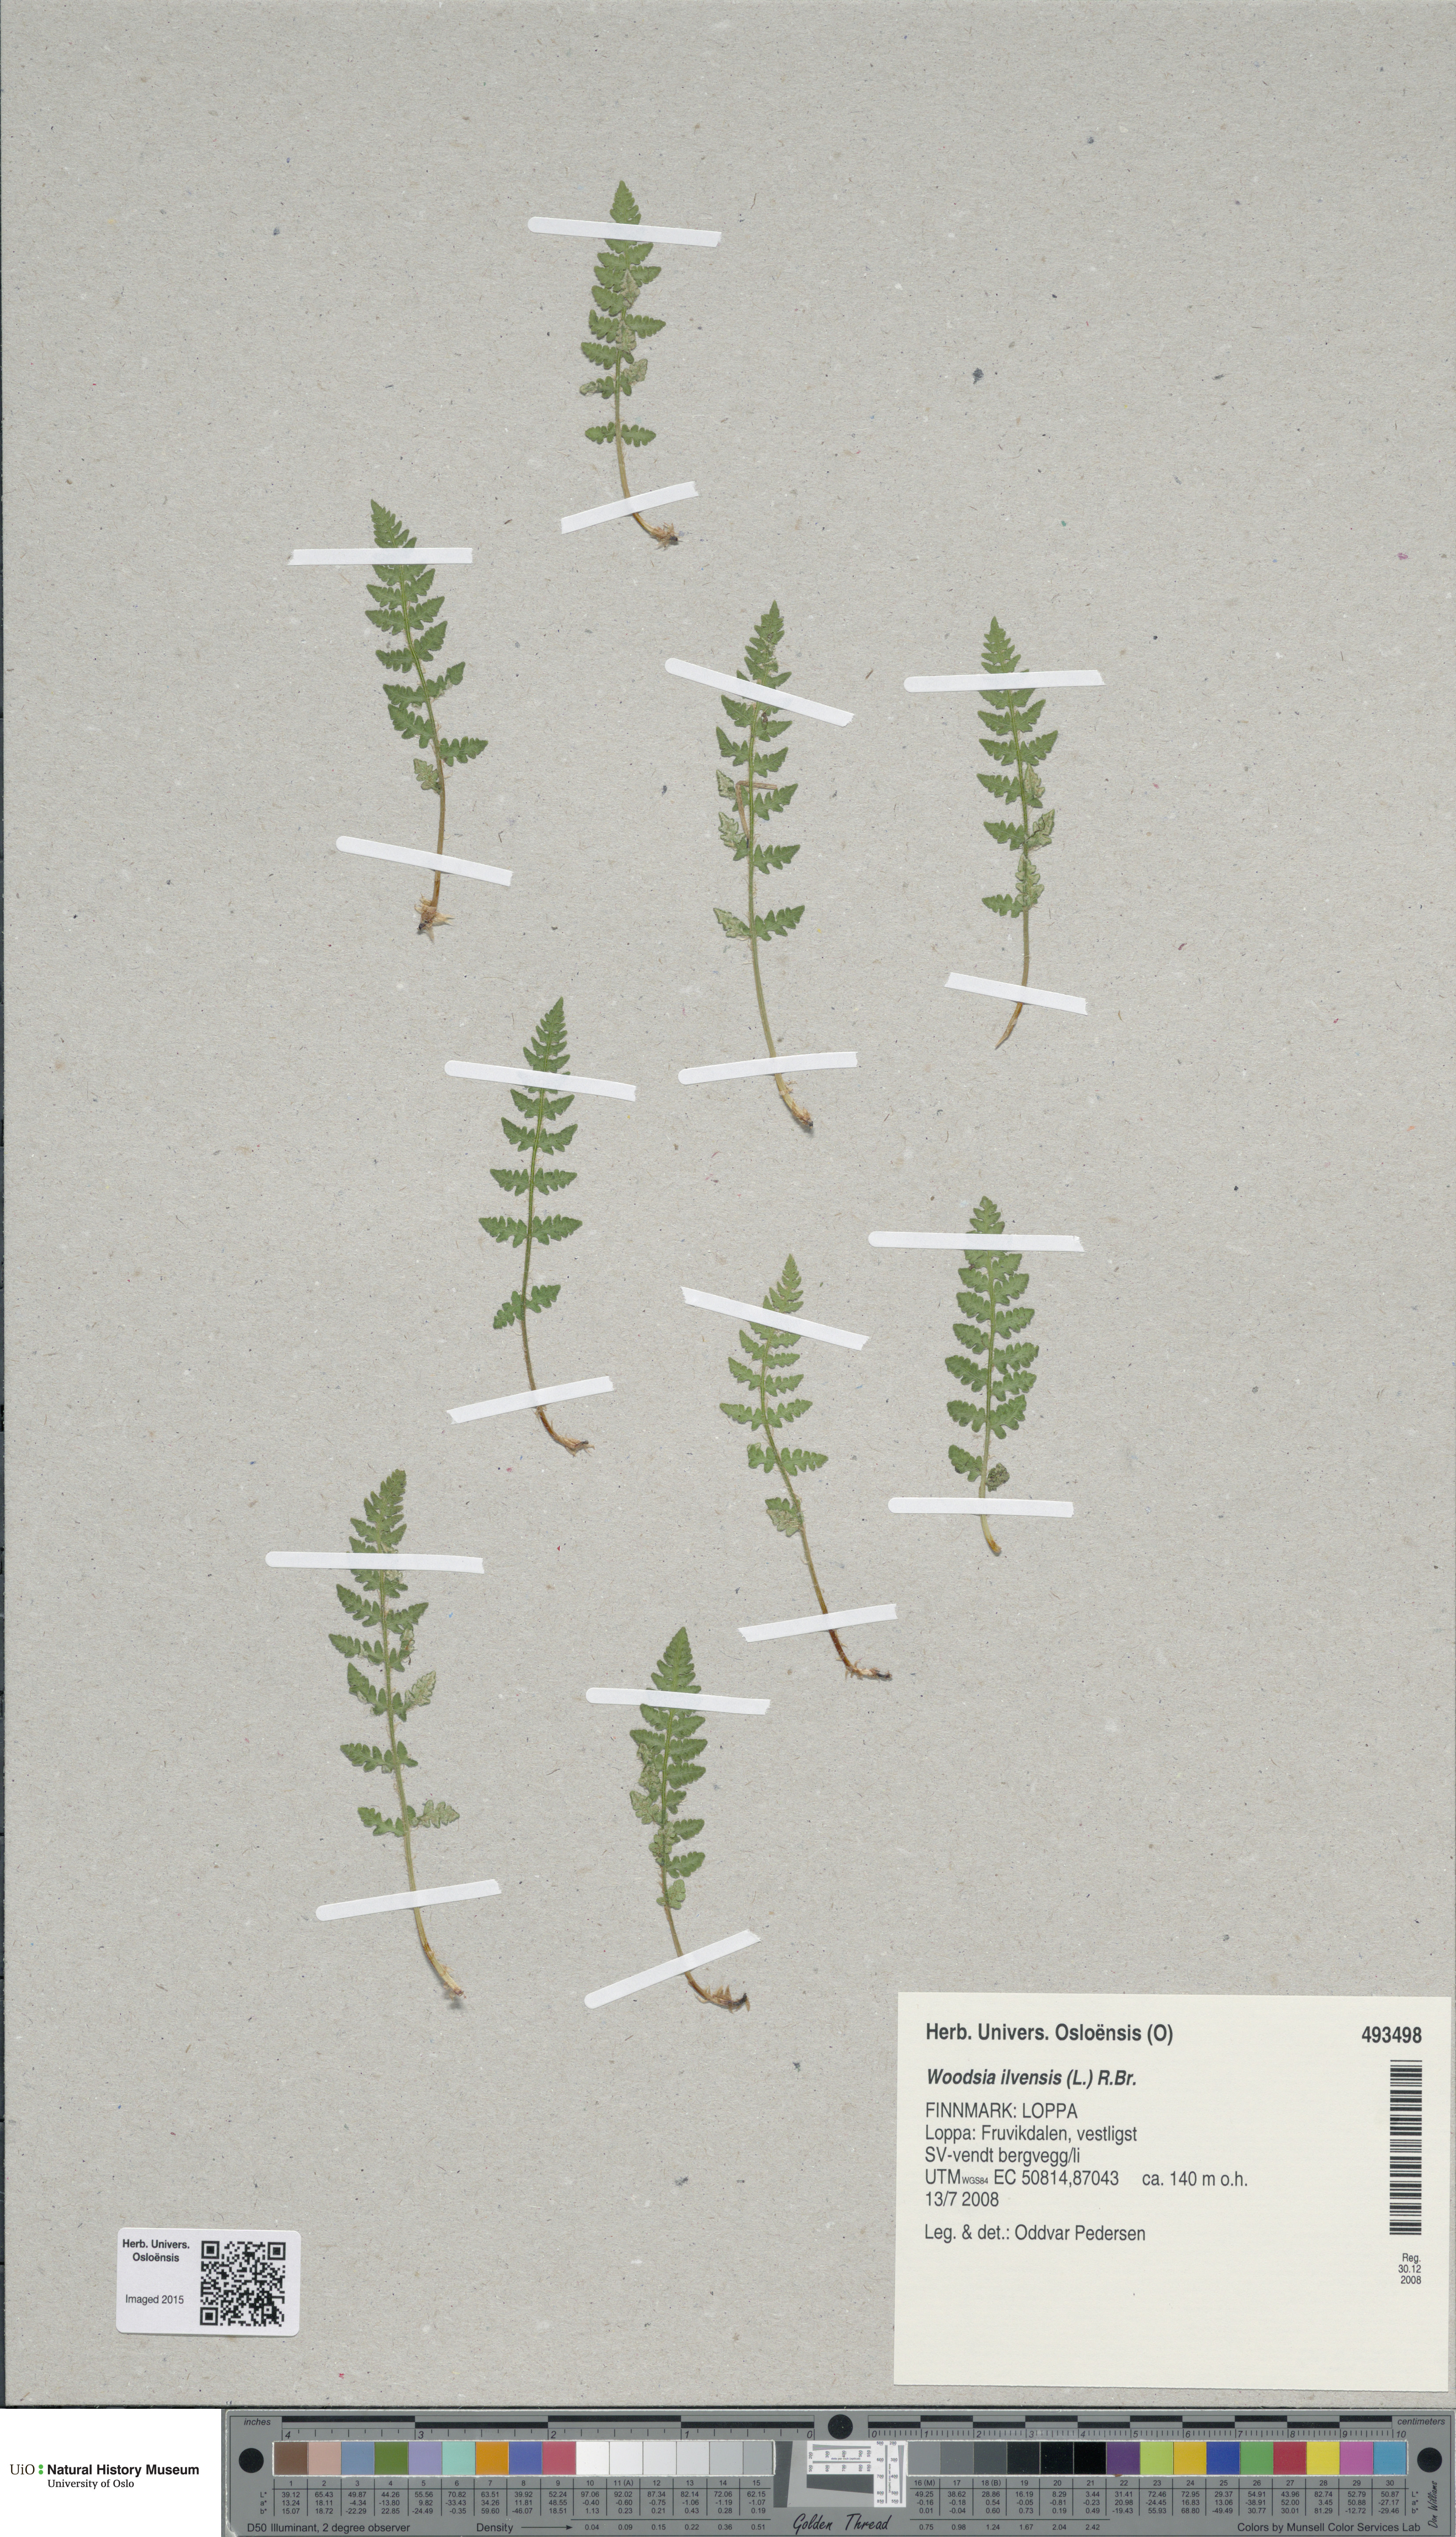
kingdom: Plantae
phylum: Tracheophyta
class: Polypodiopsida
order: Polypodiales
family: Woodsiaceae
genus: Woodsia
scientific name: Woodsia ilvensis
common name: Fragrant woodsia
